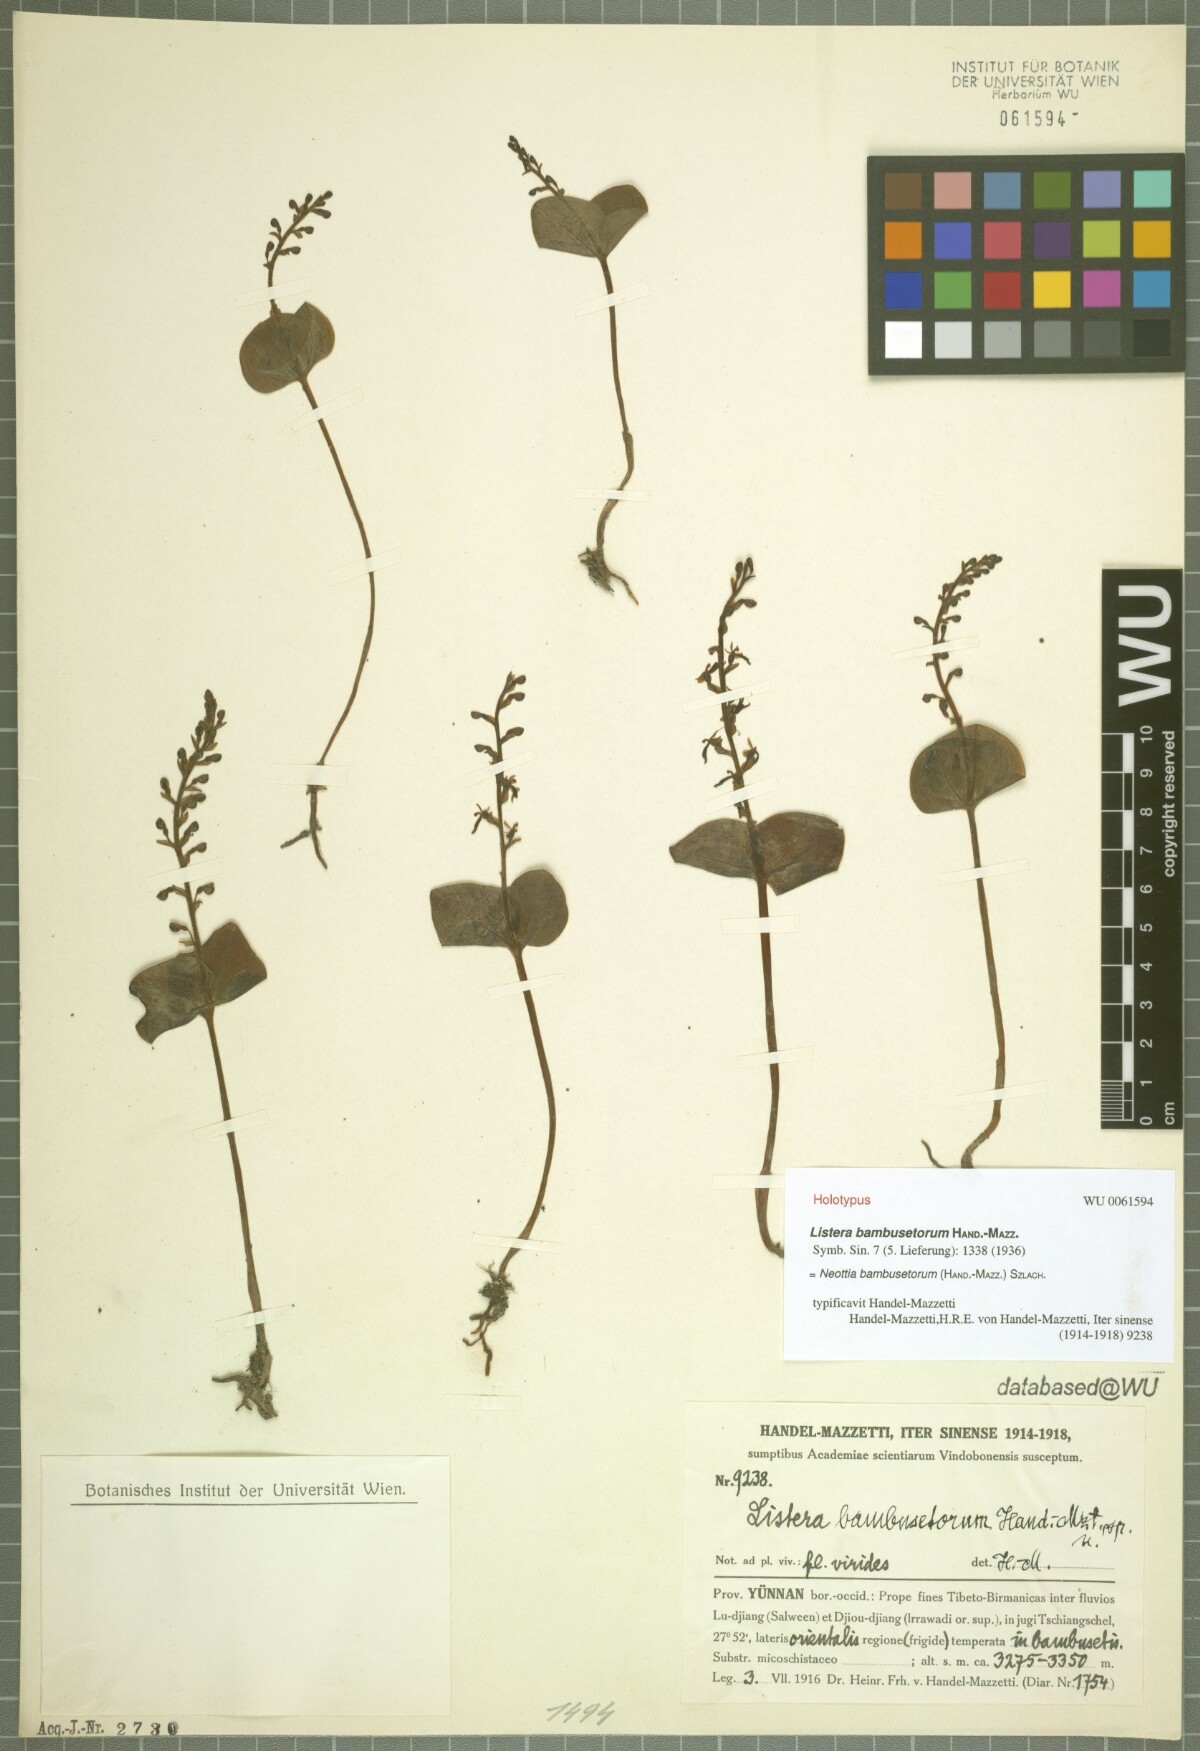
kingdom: Plantae
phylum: Tracheophyta
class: Liliopsida
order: Asparagales
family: Orchidaceae
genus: Neottia
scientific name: Neottia bambusetorum
